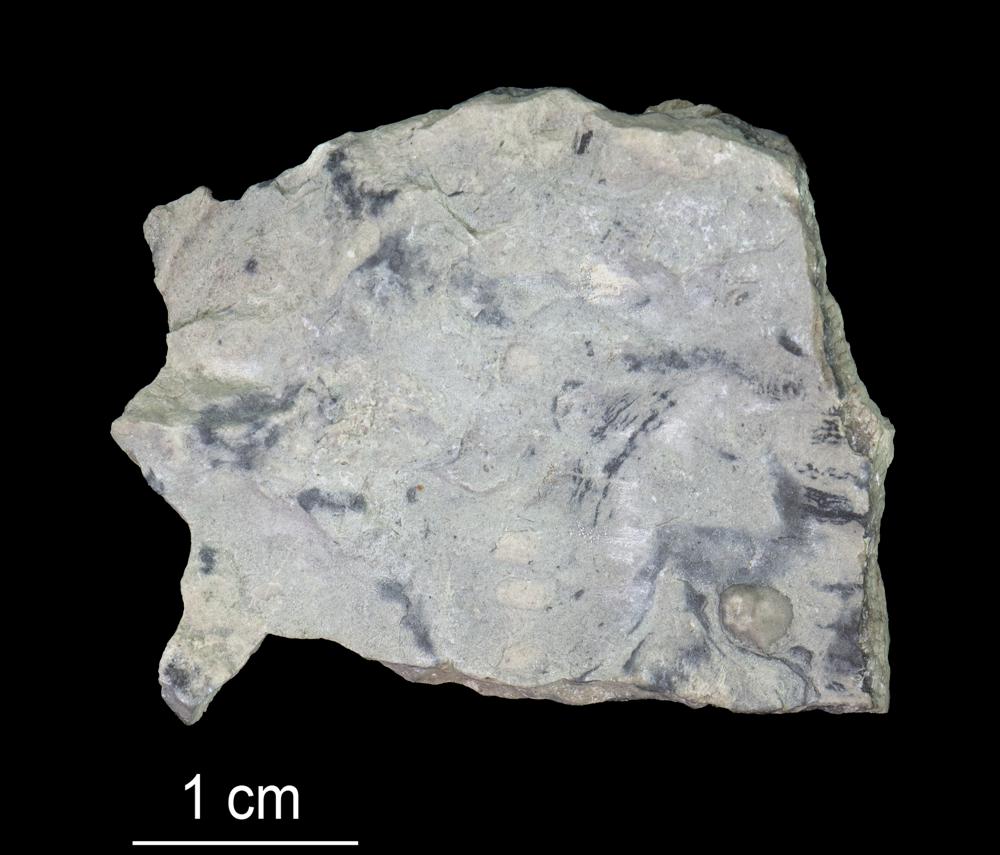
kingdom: Animalia
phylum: Bryozoa
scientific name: Bryozoa
